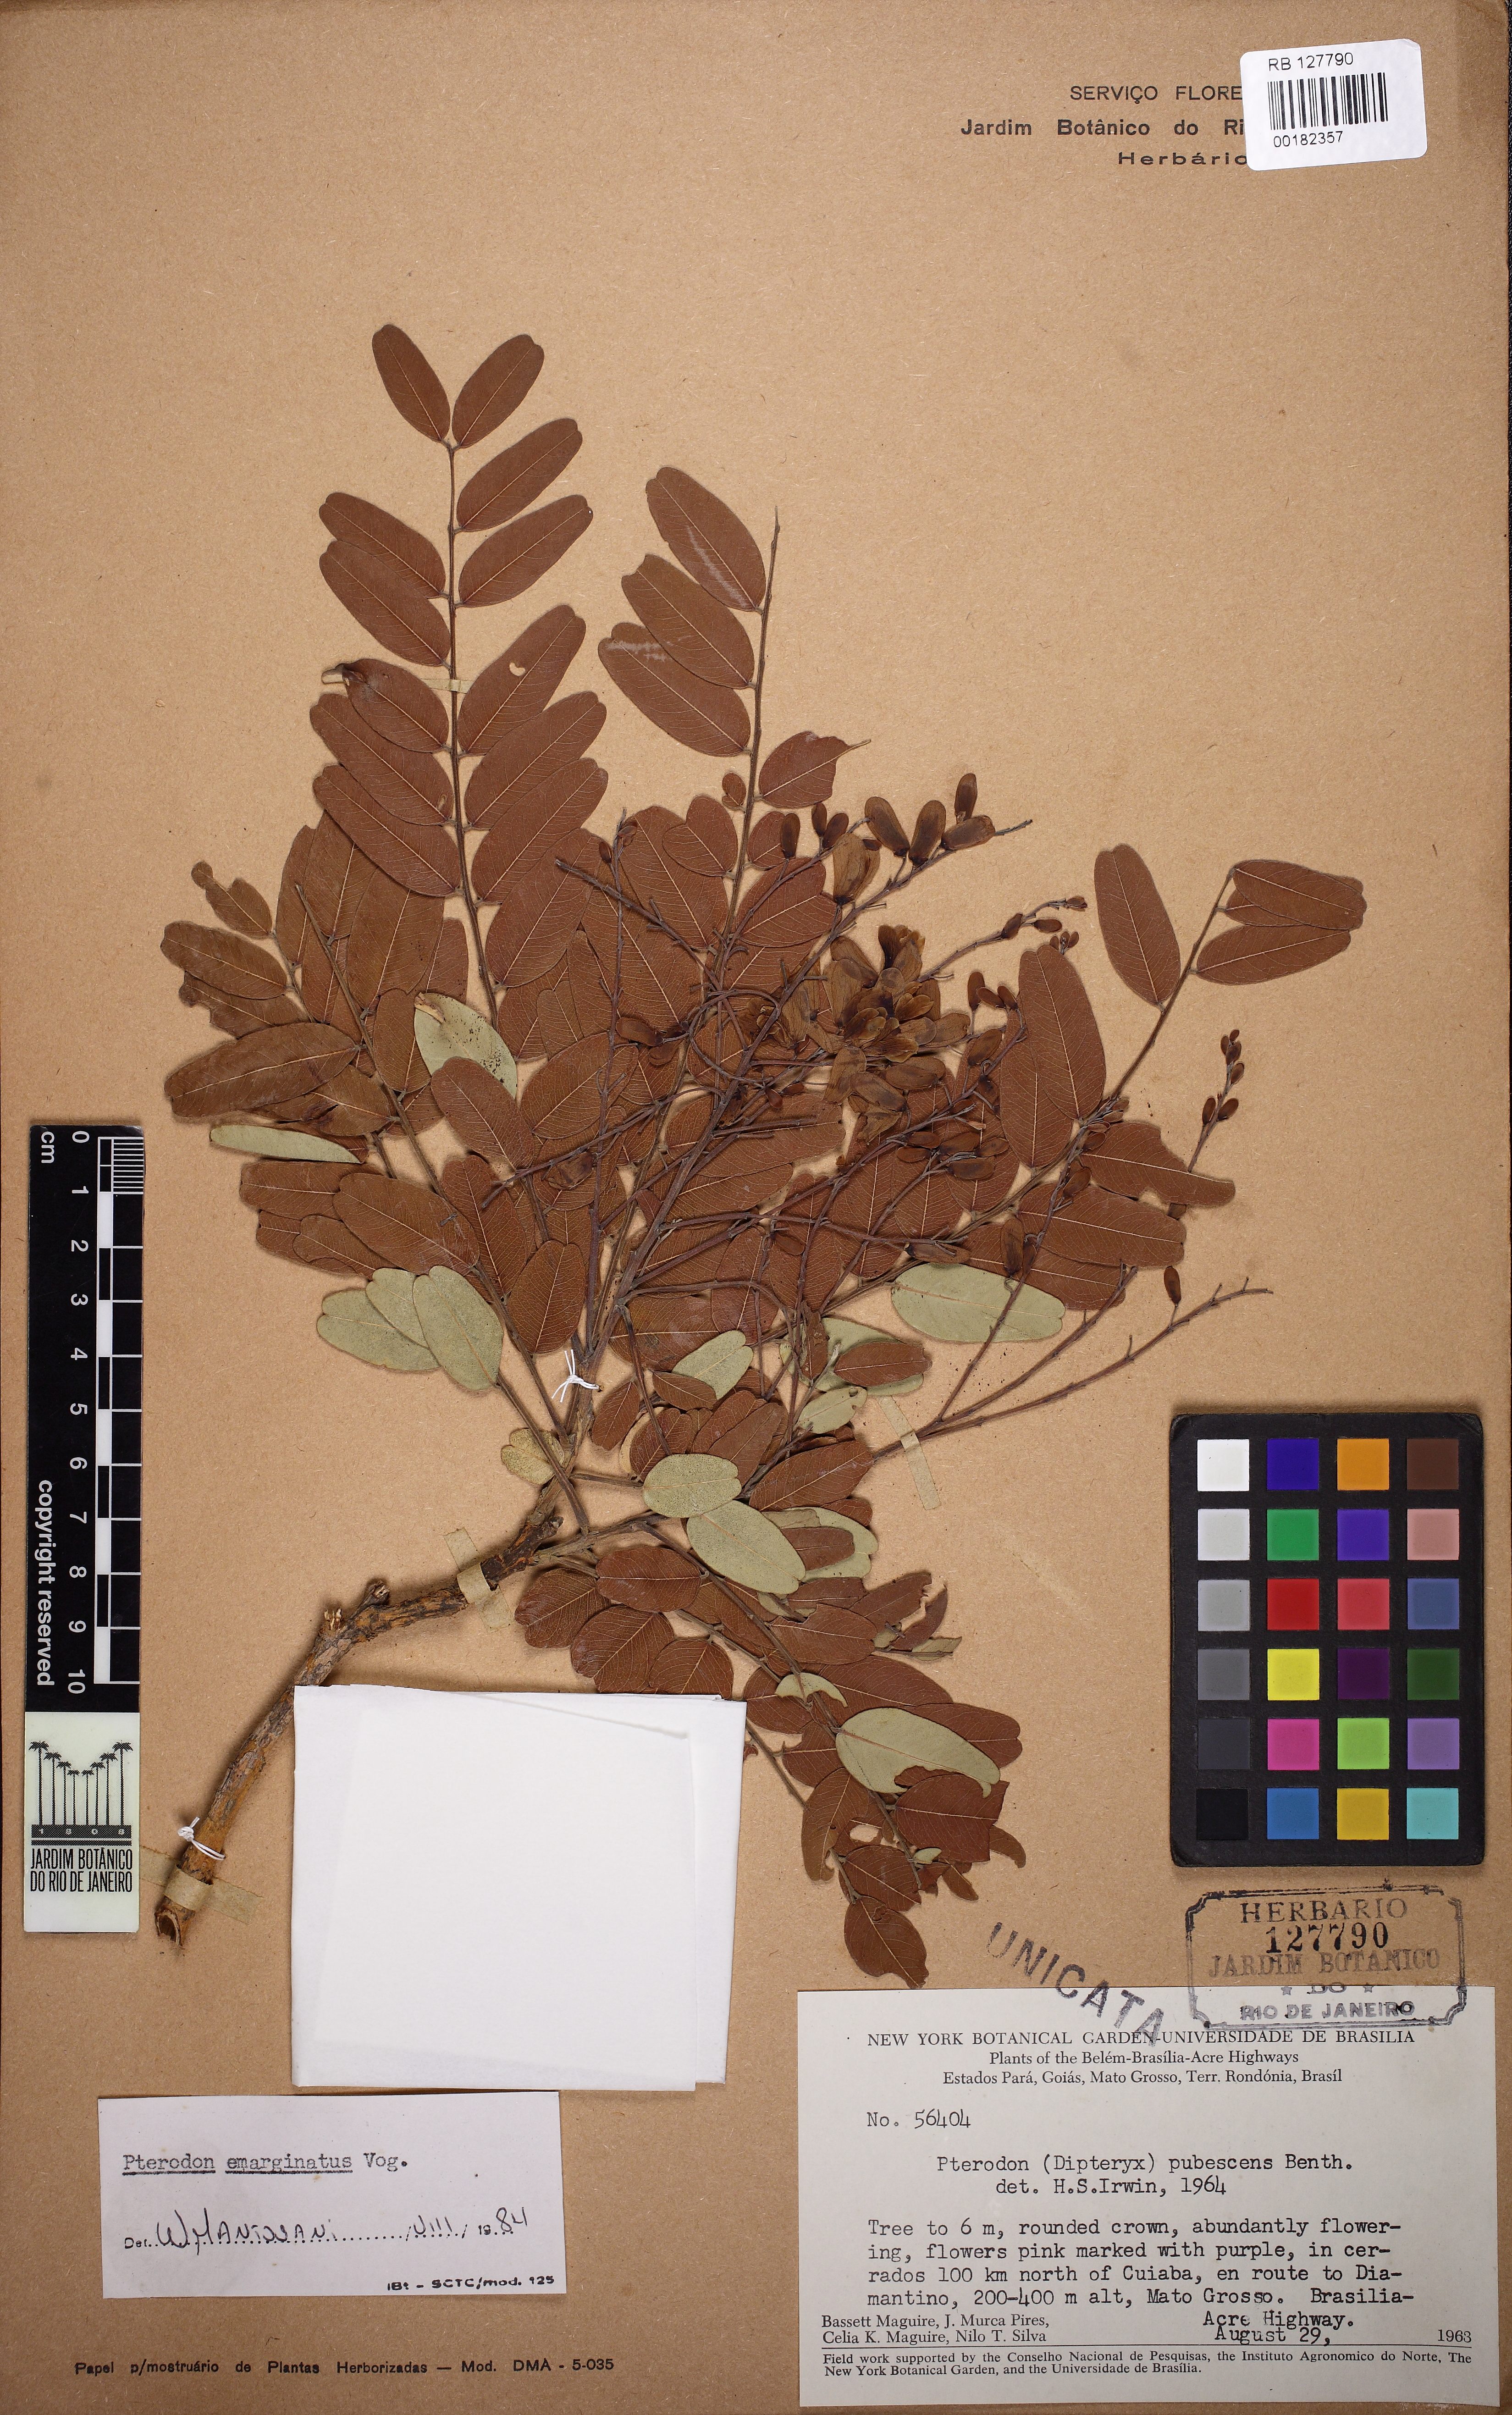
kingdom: Plantae
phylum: Tracheophyta
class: Magnoliopsida
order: Fabales
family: Fabaceae
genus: Pterodon
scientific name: Pterodon emarginatus
